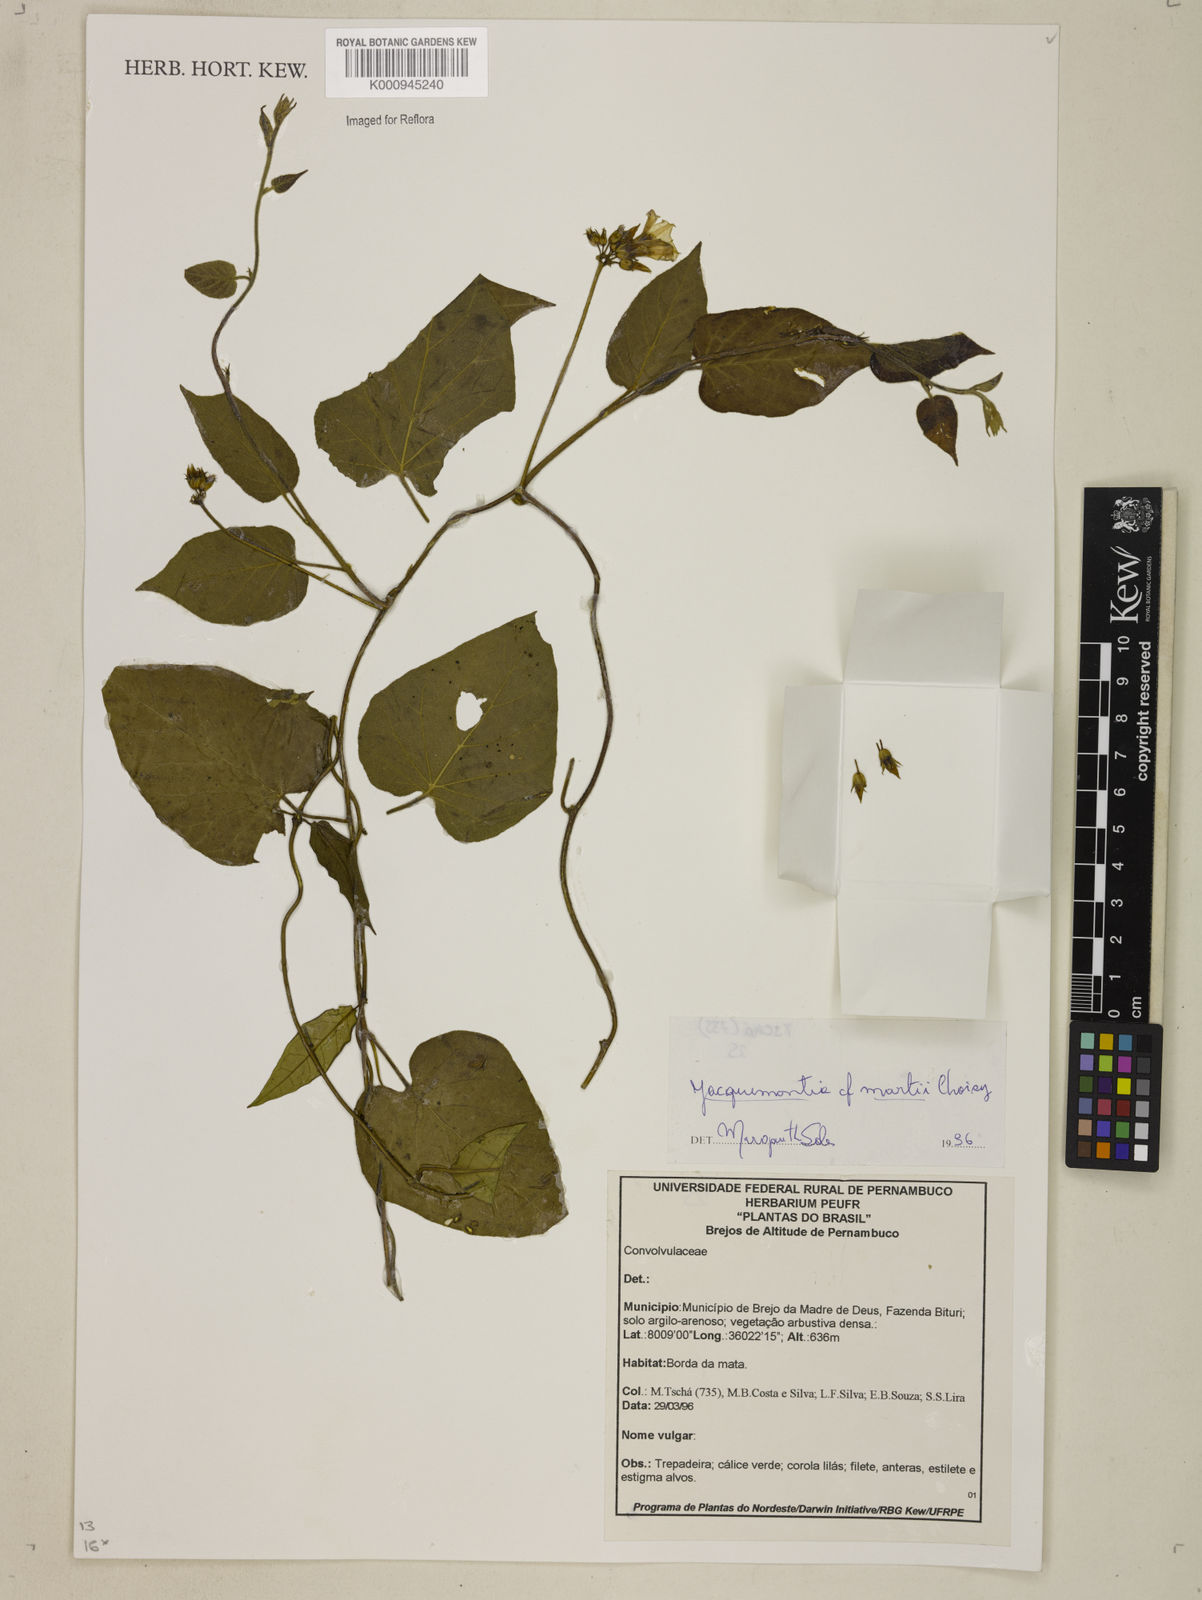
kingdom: Plantae
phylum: Tracheophyta
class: Magnoliopsida
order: Solanales
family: Convolvulaceae
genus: Jacquemontia
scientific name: Jacquemontia martii
